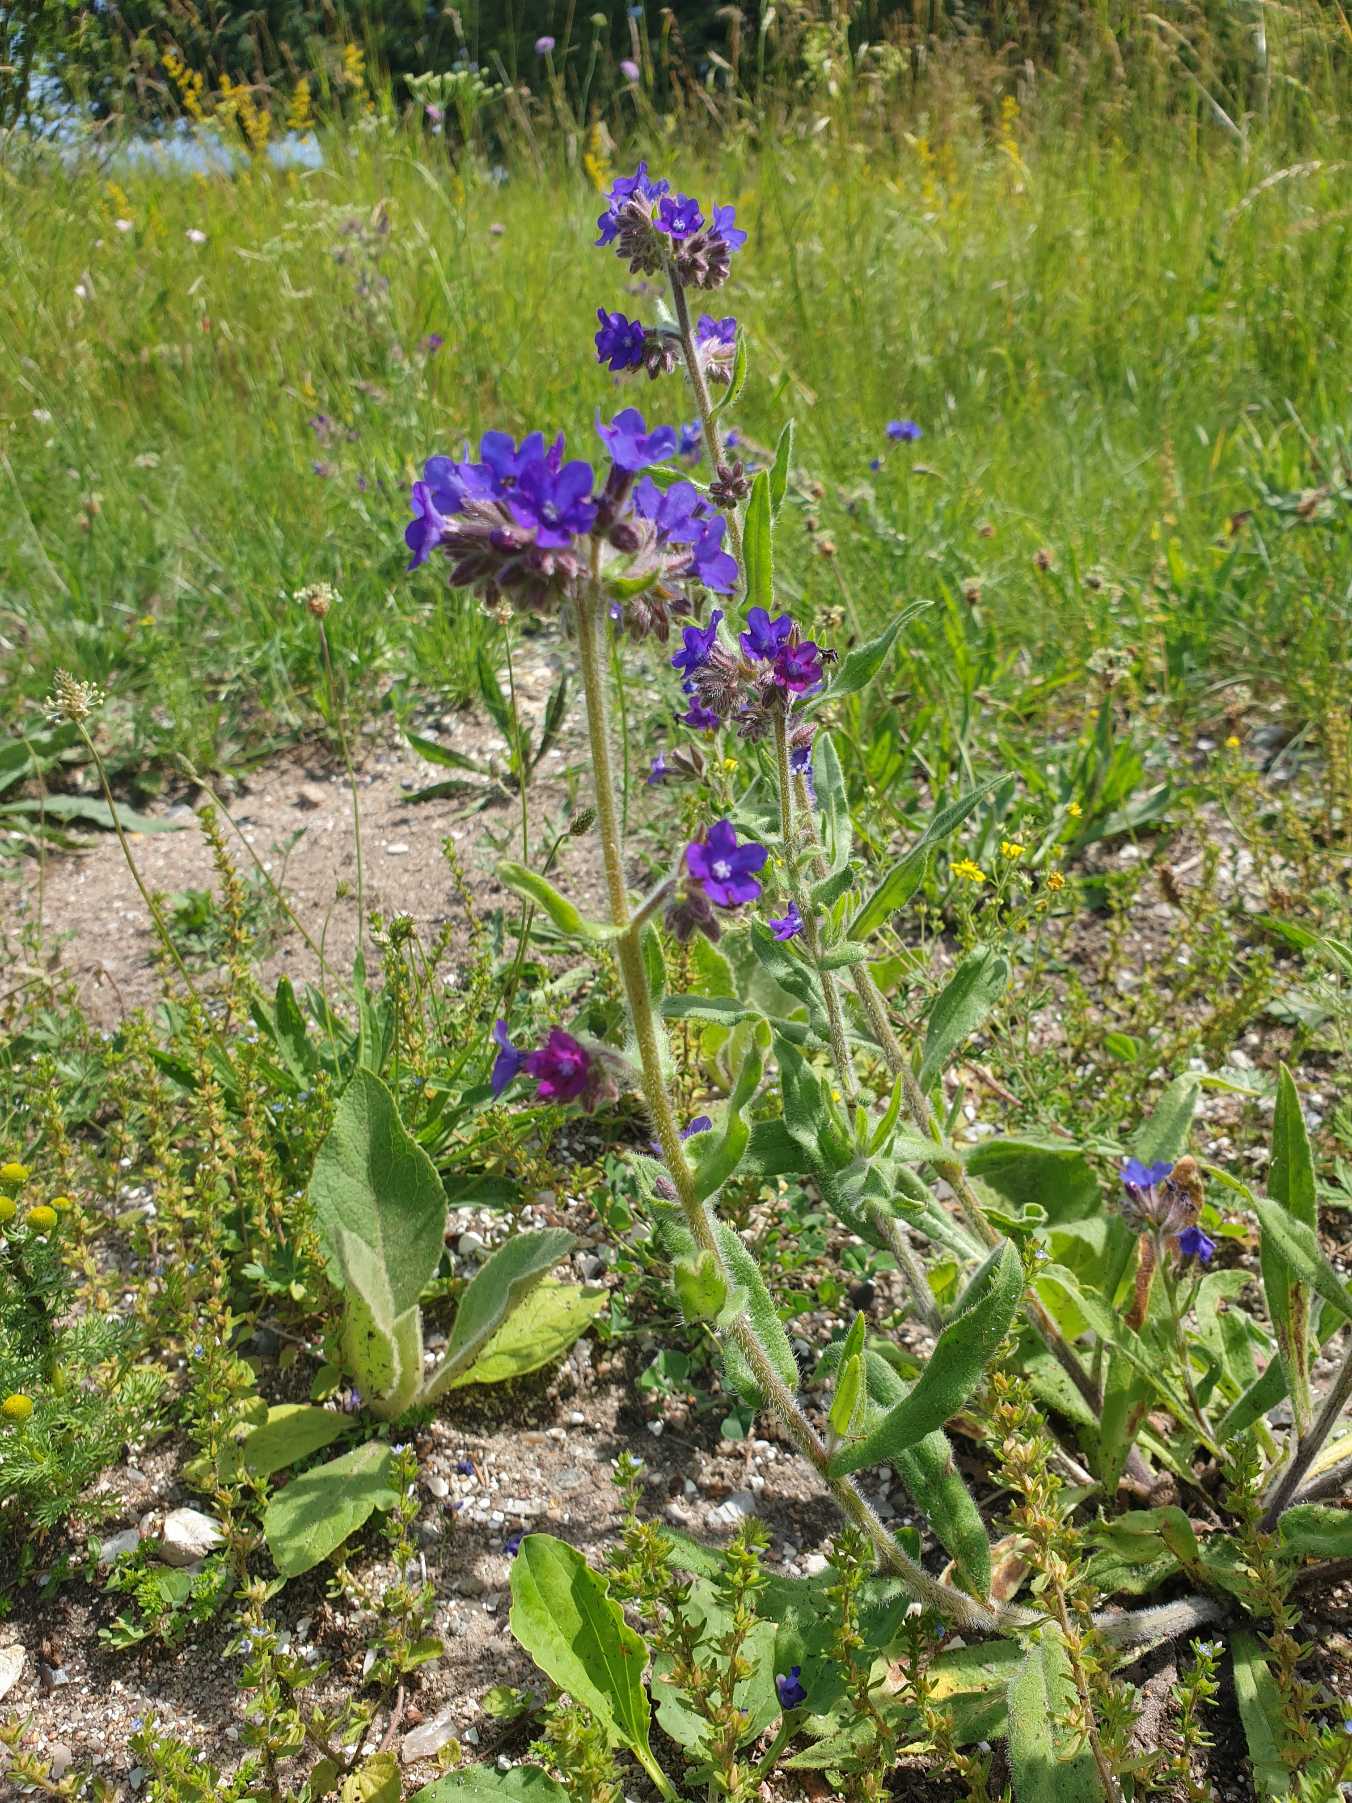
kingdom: Plantae
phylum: Tracheophyta
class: Magnoliopsida
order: Boraginales
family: Boraginaceae
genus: Anchusa
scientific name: Anchusa officinalis
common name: Læge-oksetunge
